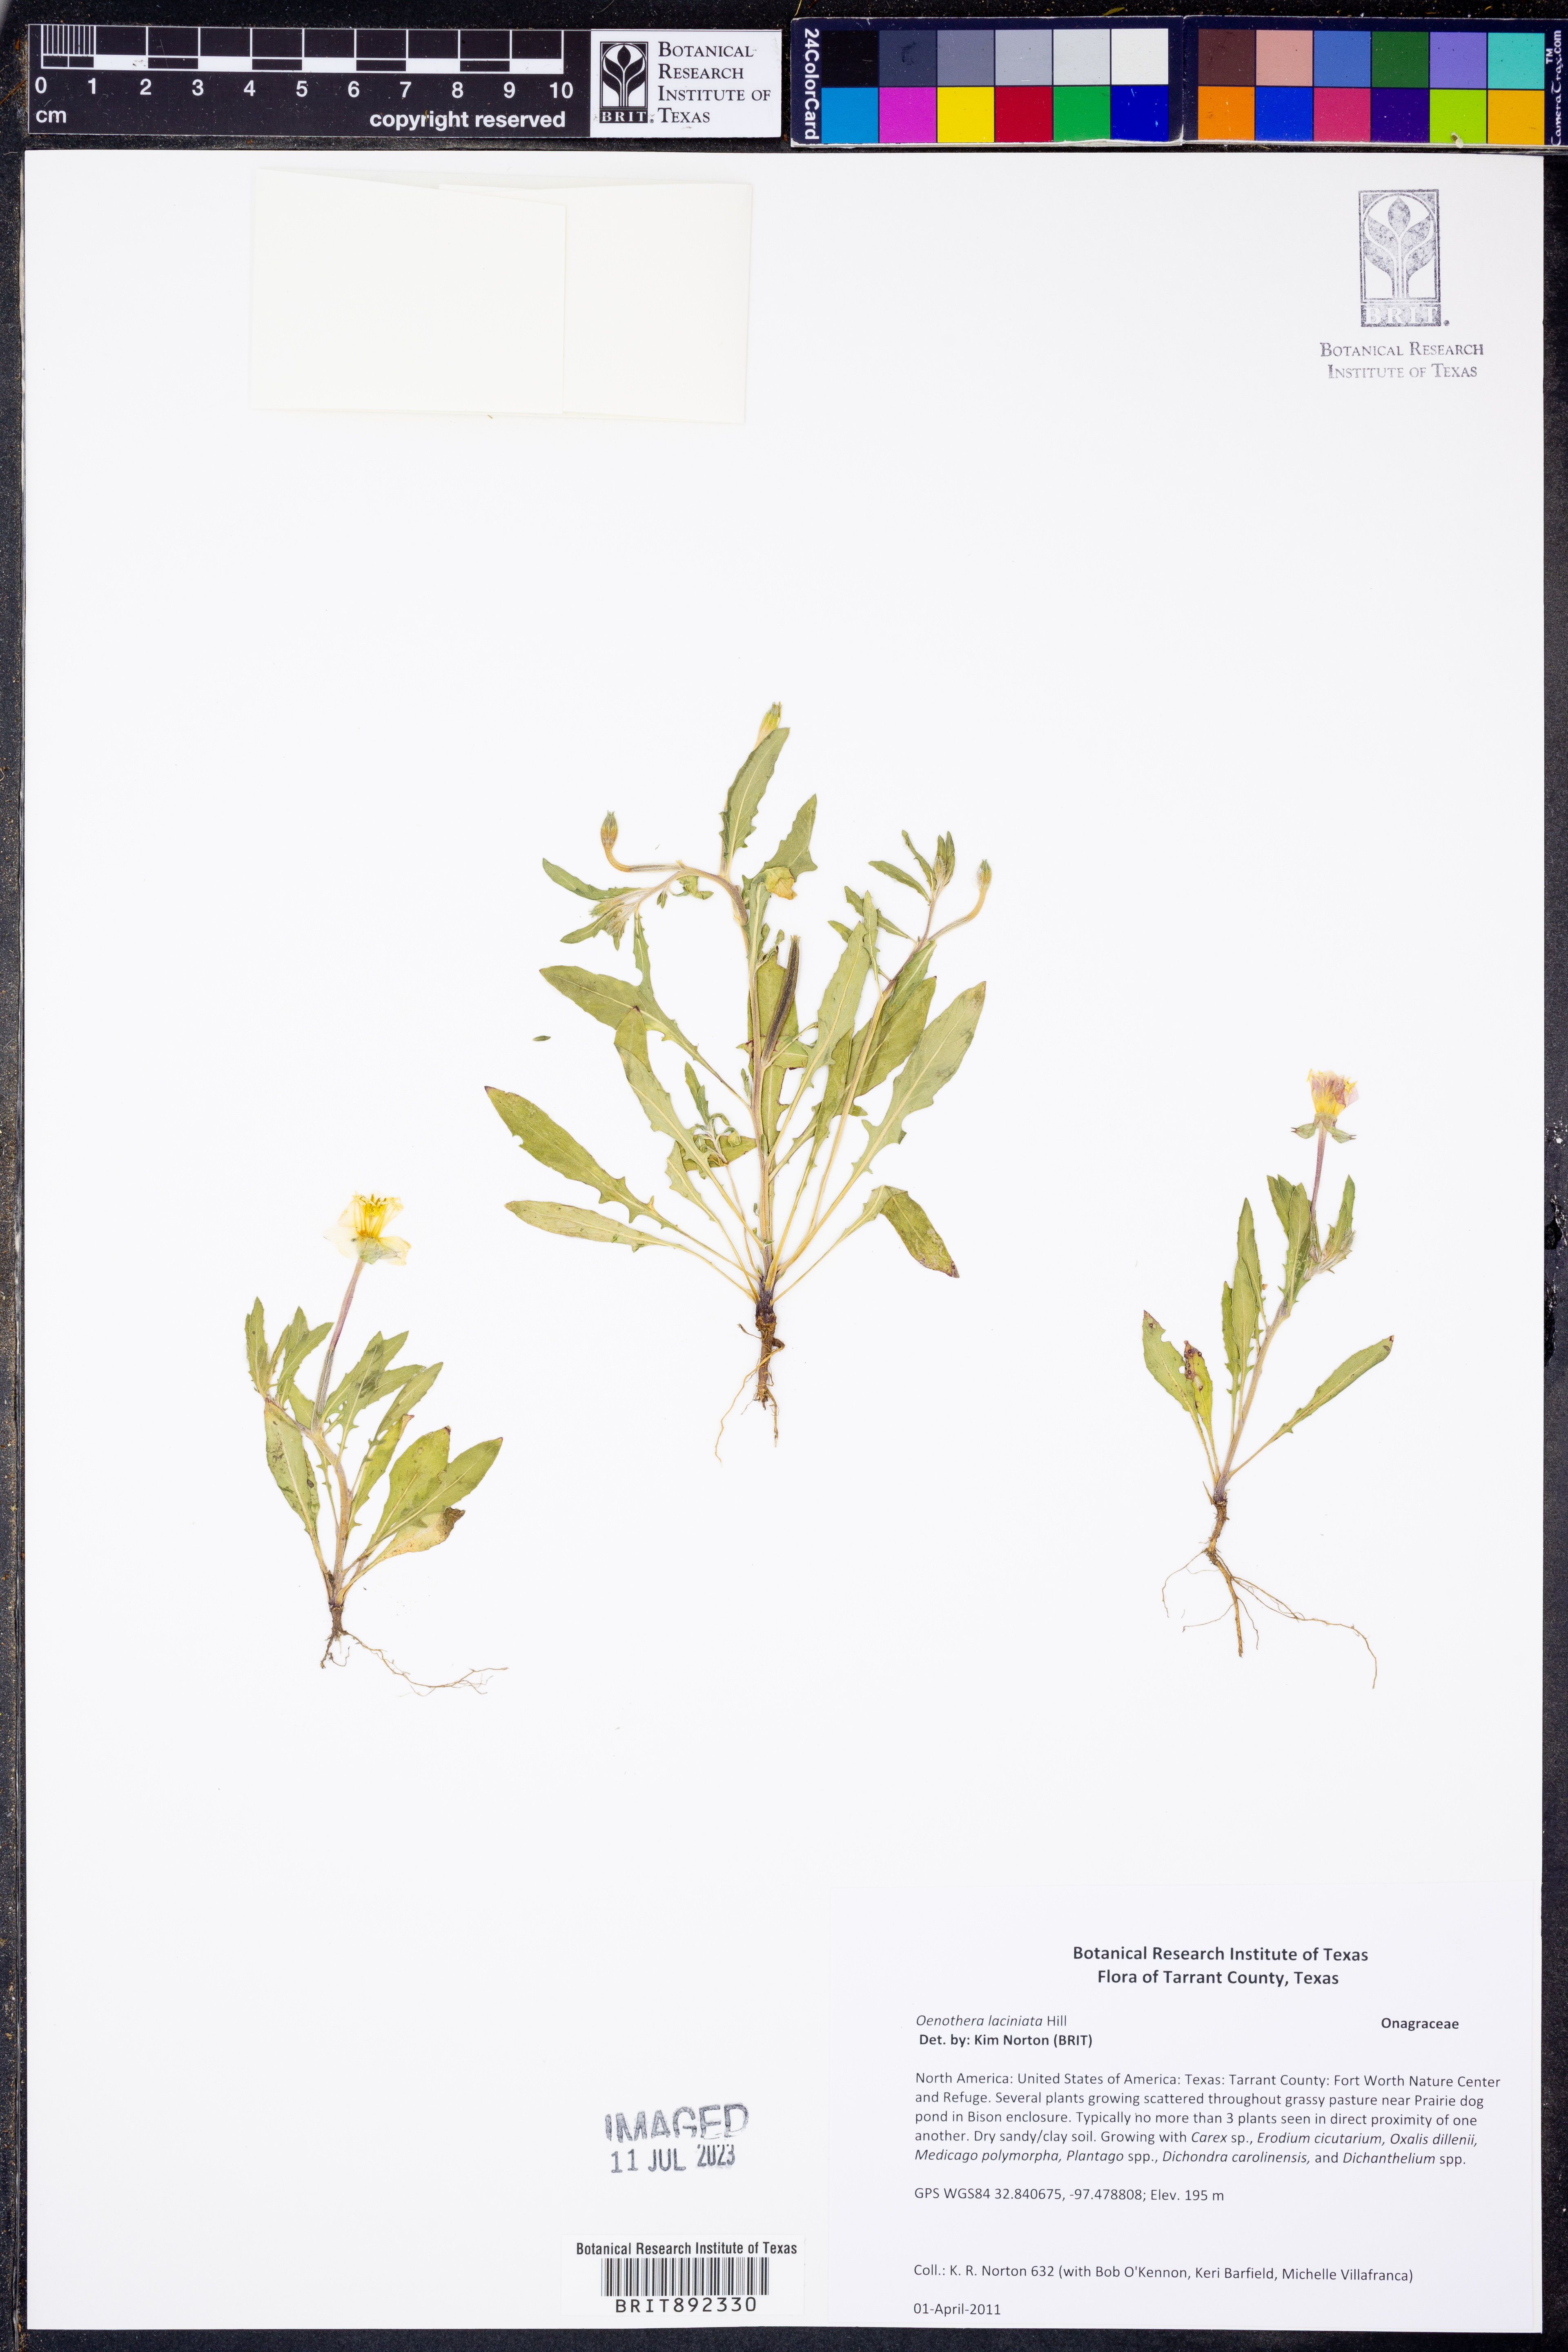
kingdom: Plantae
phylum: Tracheophyta
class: Magnoliopsida
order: Myrtales
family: Onagraceae
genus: Oenothera
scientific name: Oenothera laciniata
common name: Cut-leaved evening-primrose
